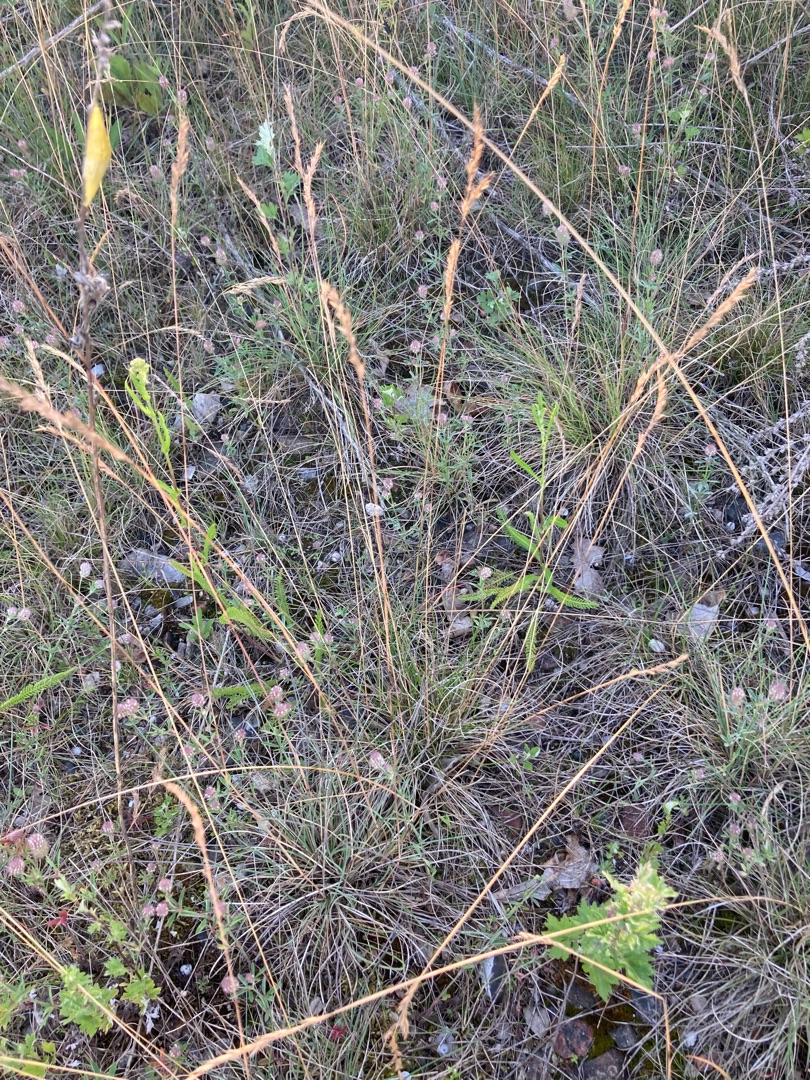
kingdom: Plantae
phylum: Tracheophyta
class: Liliopsida
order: Poales
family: Poaceae
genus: Festuca
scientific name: Festuca ovina
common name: Fåre-svingel
